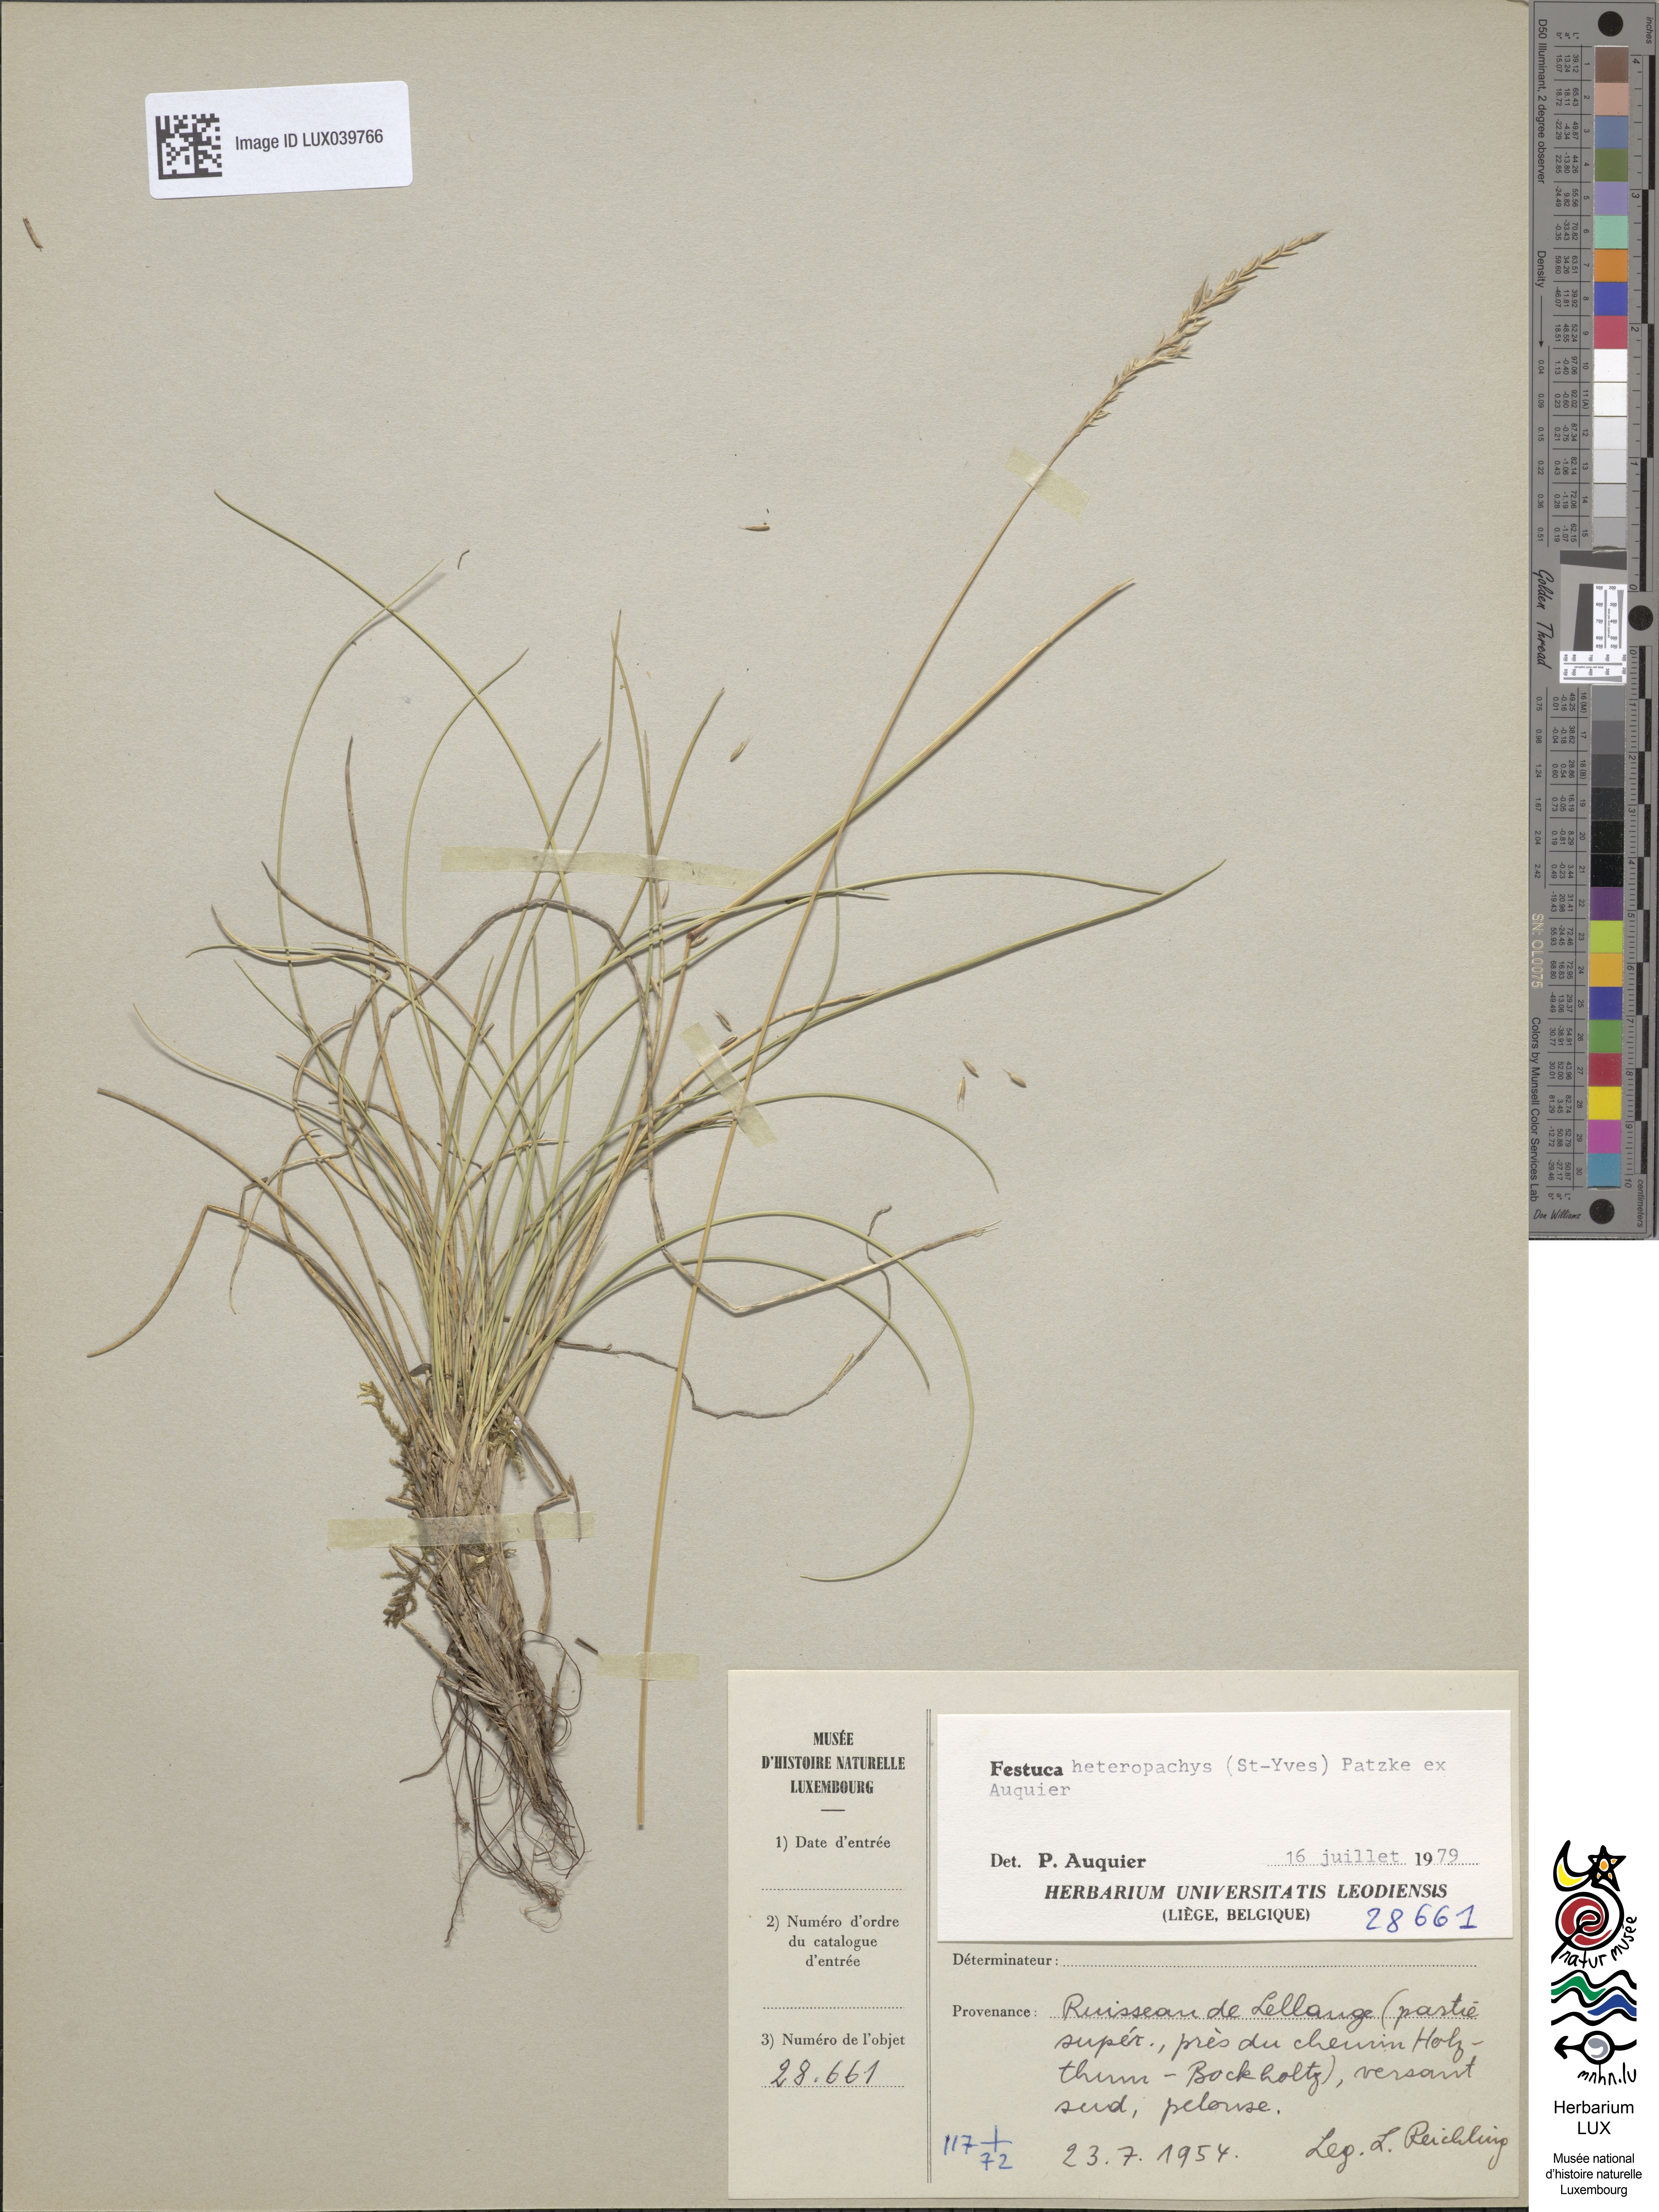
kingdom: Plantae
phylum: Tracheophyta
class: Liliopsida
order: Poales
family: Poaceae
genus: Festuca
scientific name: Festuca
